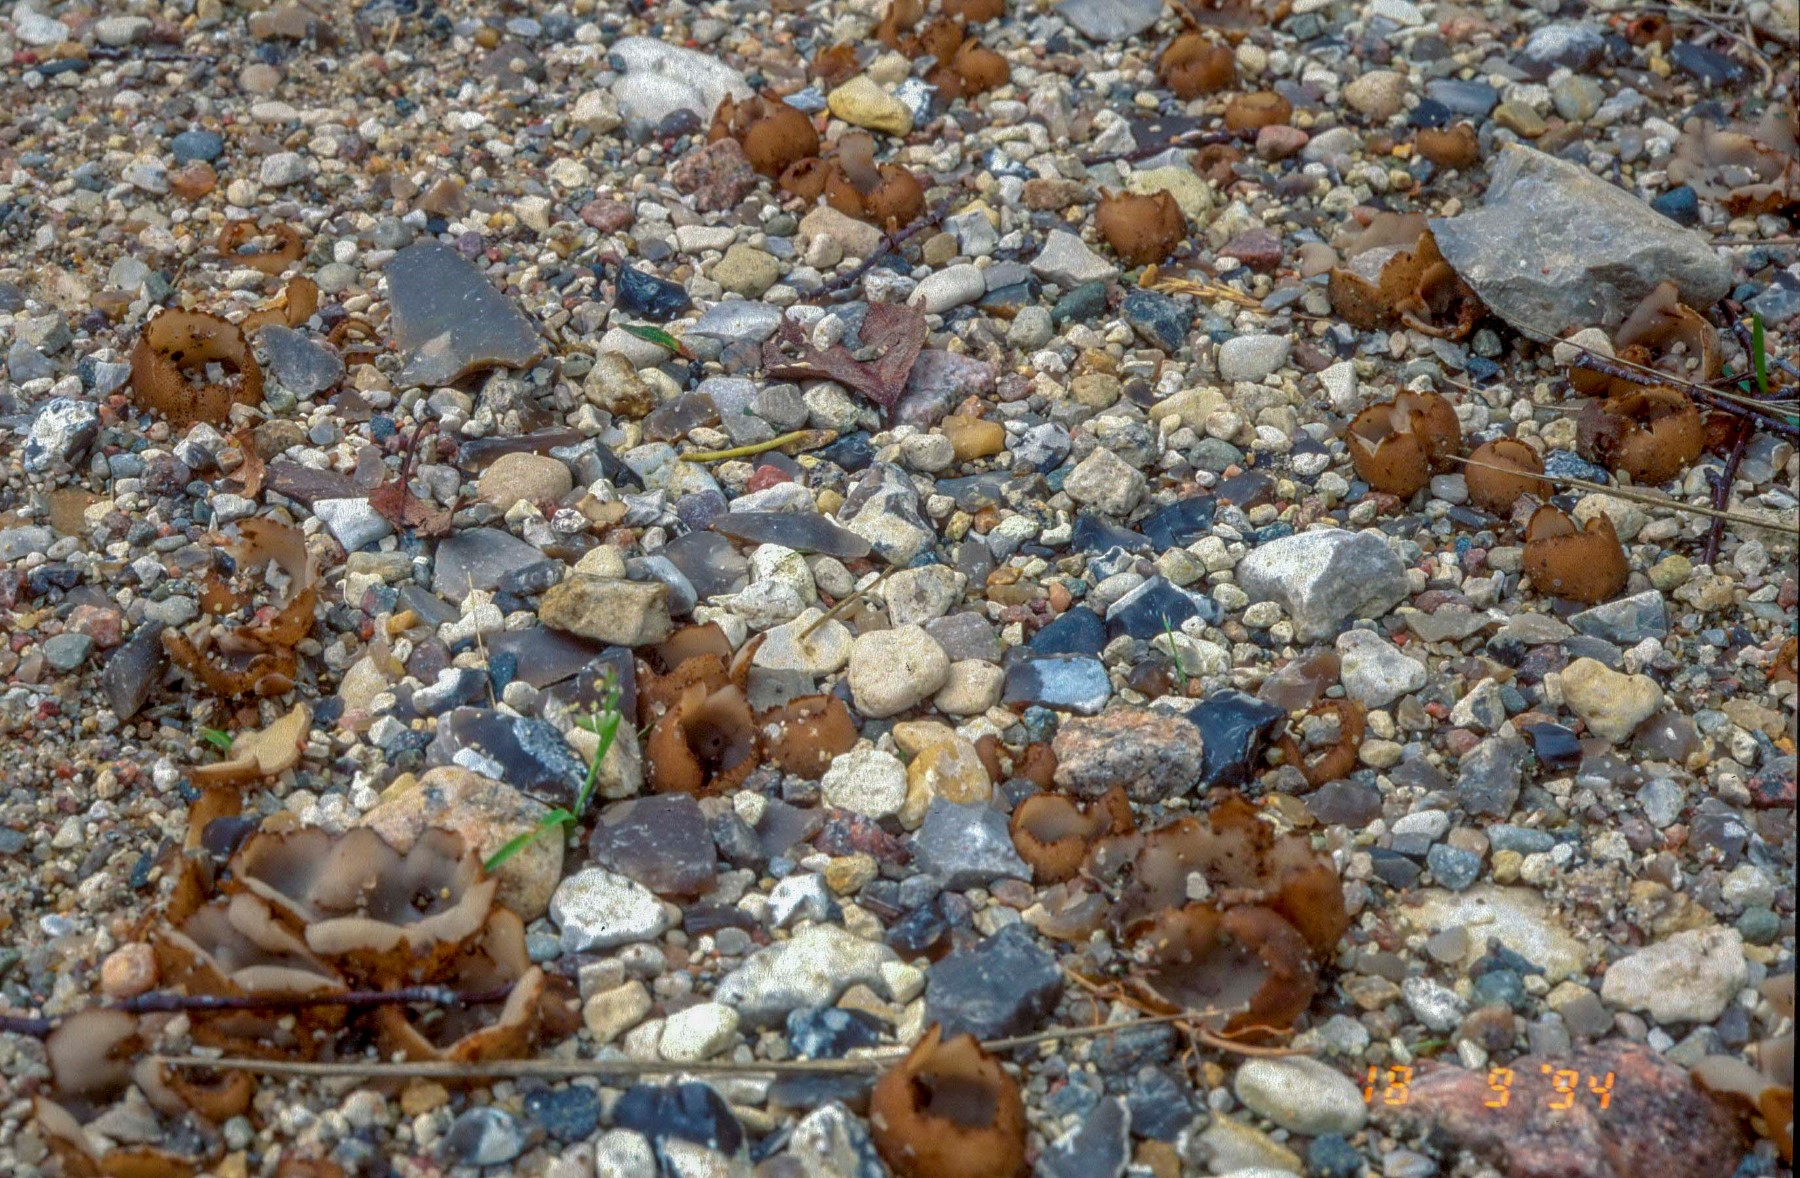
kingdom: Fungi
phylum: Ascomycota
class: Pezizomycetes
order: Pezizales
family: Pyronemataceae
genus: Geopora
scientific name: Geopora cervina
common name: hjortebrun jordbæger
